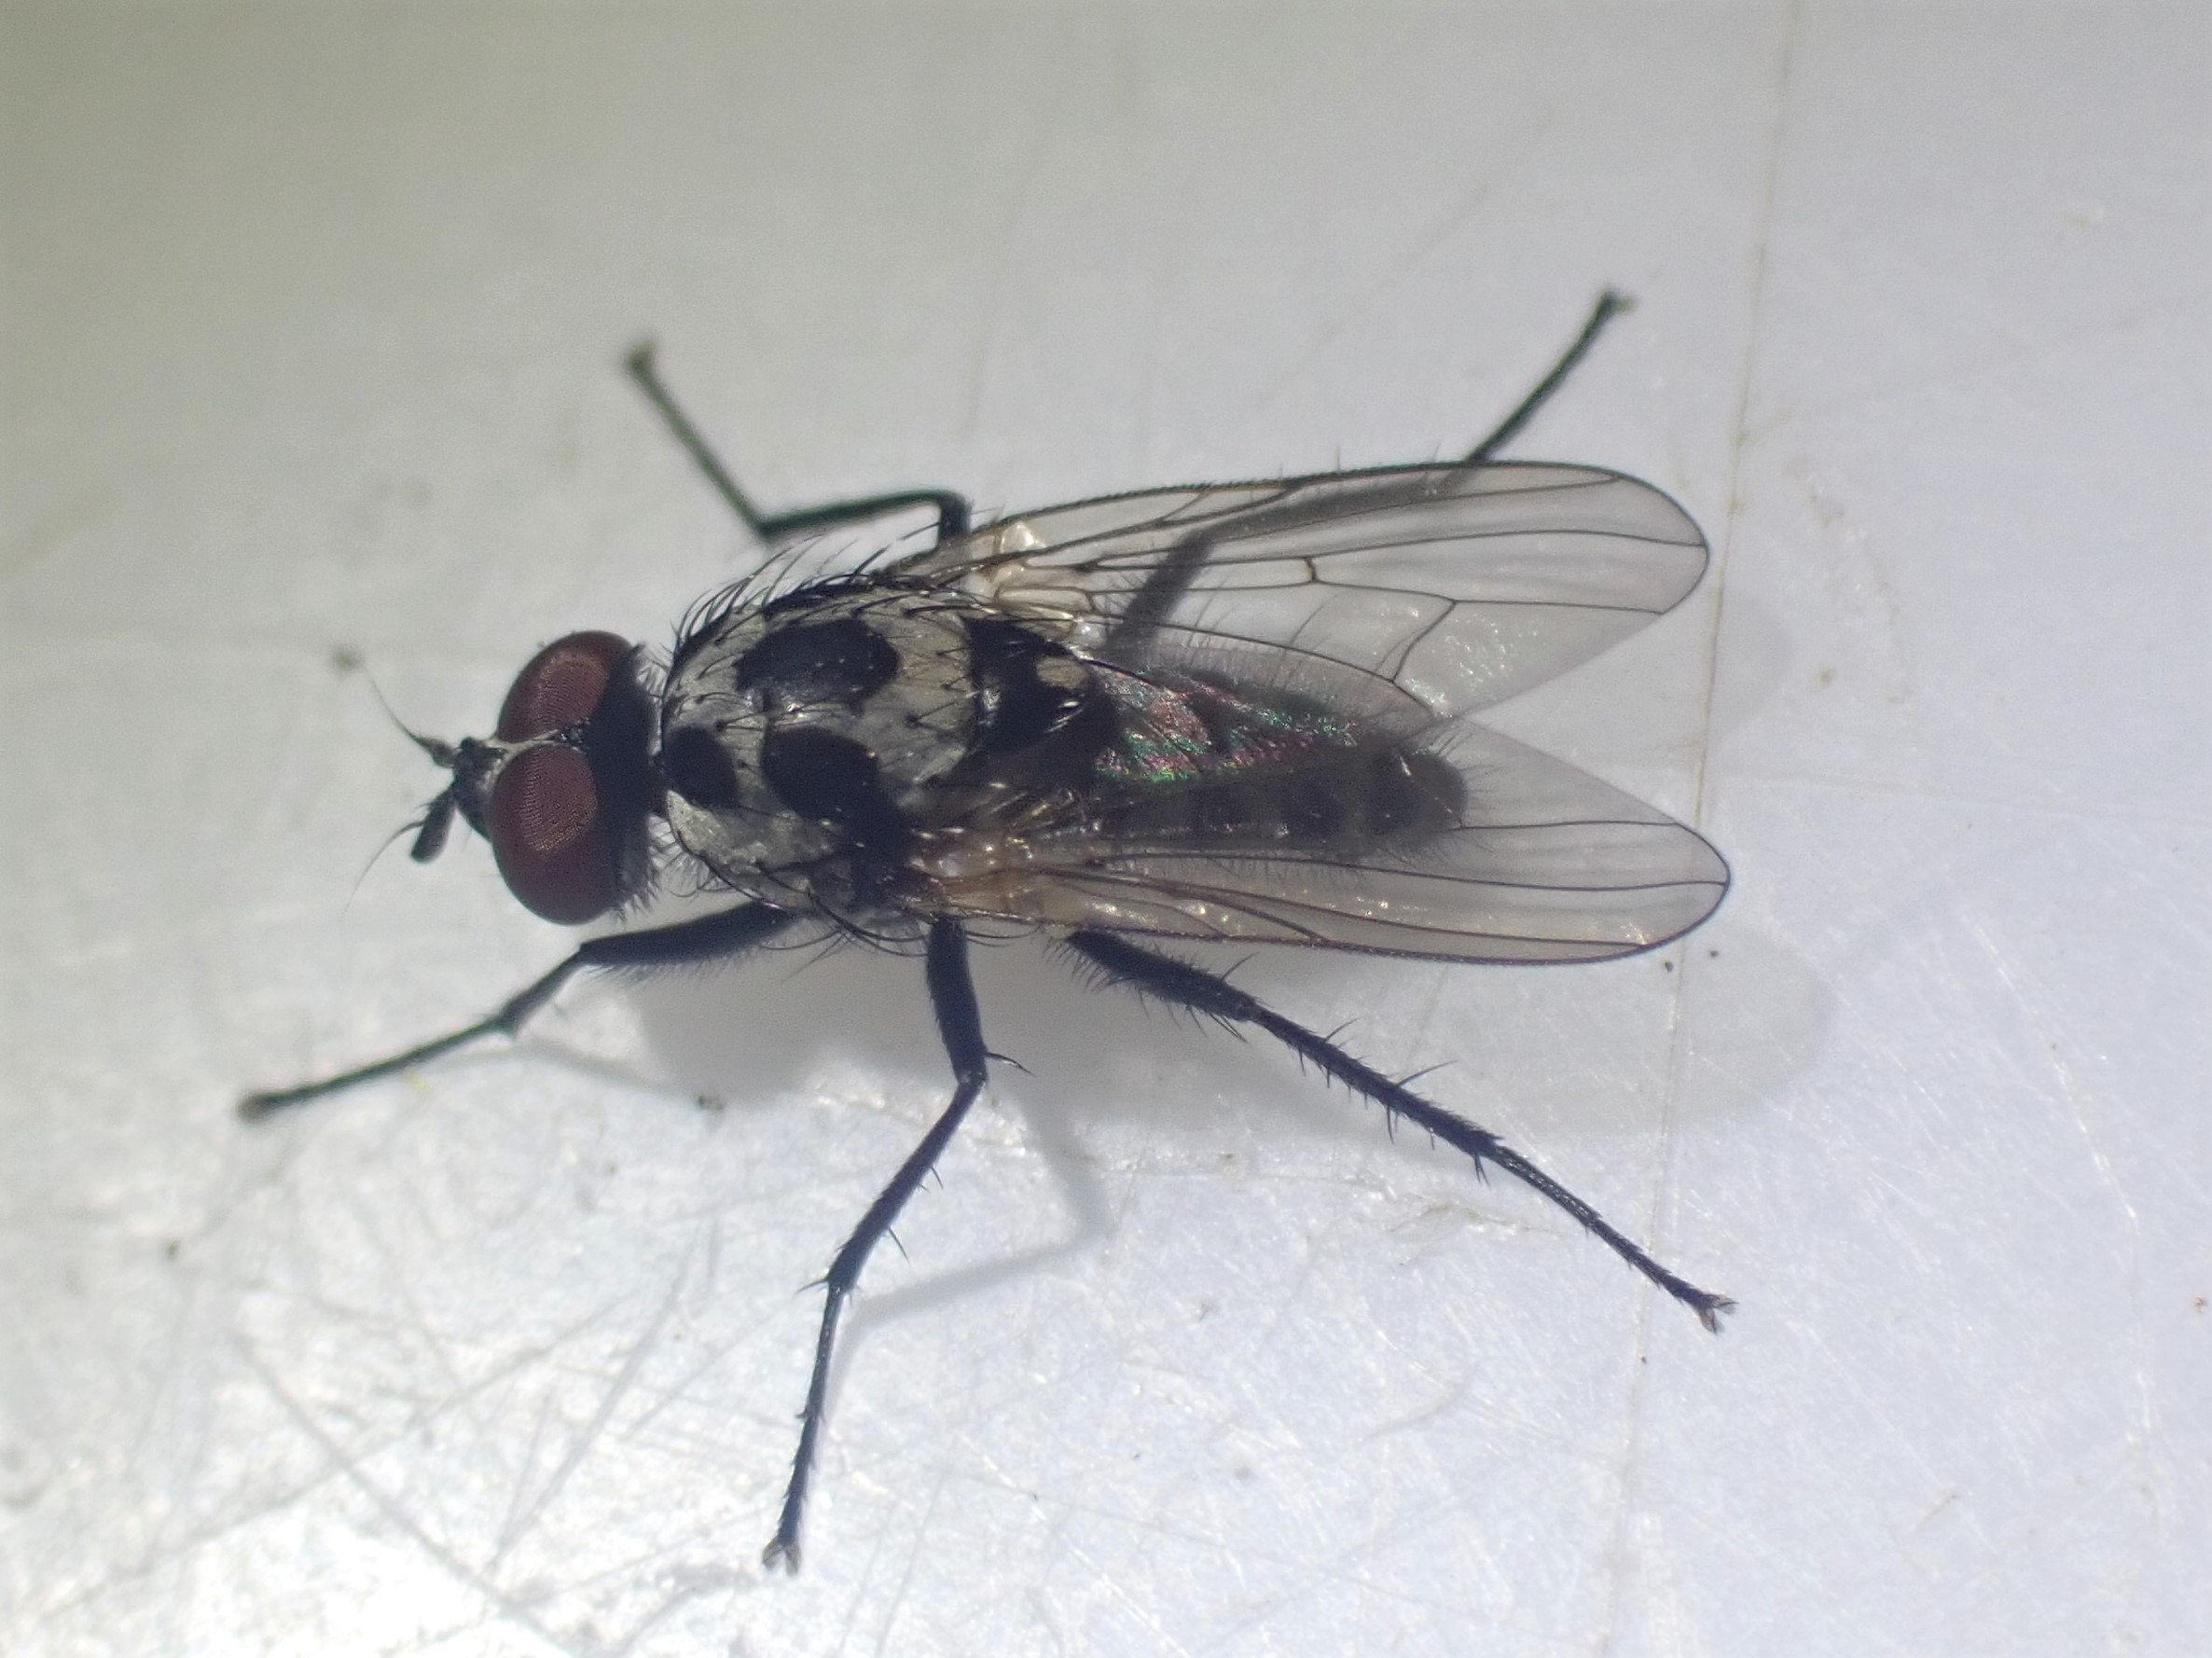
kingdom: Animalia
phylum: Arthropoda
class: Insecta
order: Diptera
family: Anthomyiidae
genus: Anthomyia
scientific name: Anthomyia procellaris
